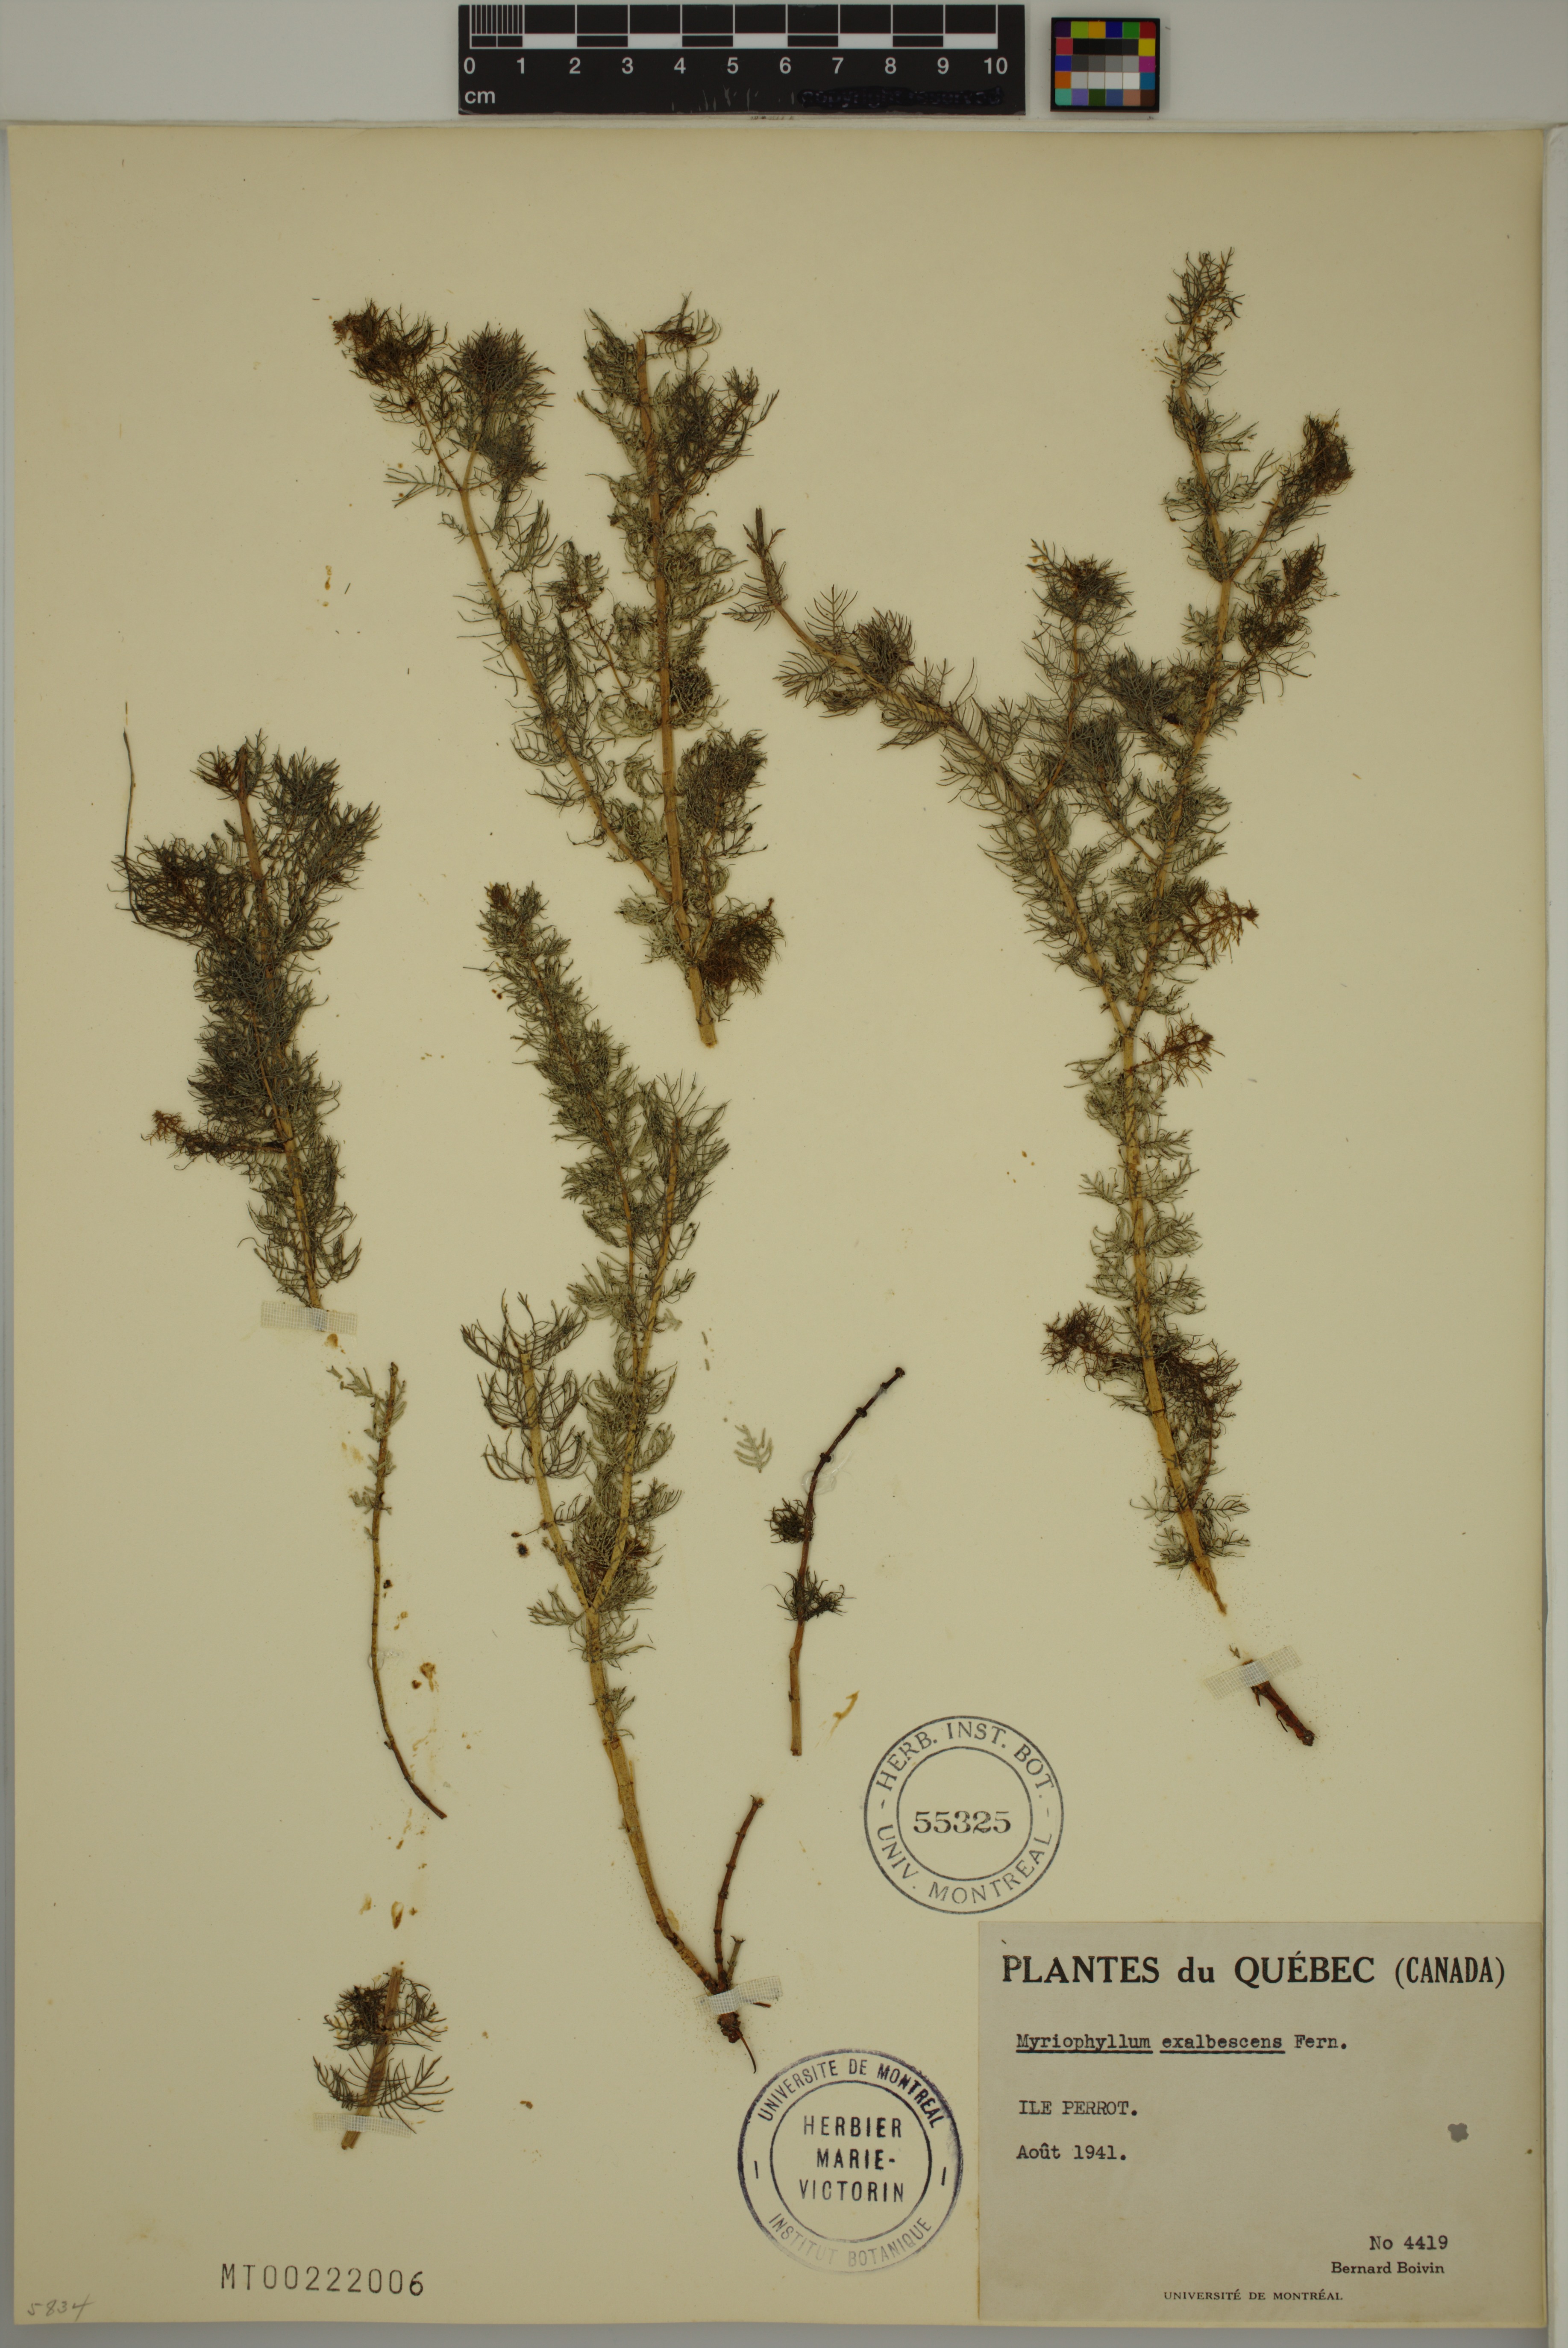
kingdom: Plantae
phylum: Tracheophyta
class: Magnoliopsida
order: Saxifragales
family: Haloragaceae
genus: Myriophyllum
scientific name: Myriophyllum sibiricum
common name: Siberian water-milfoil
